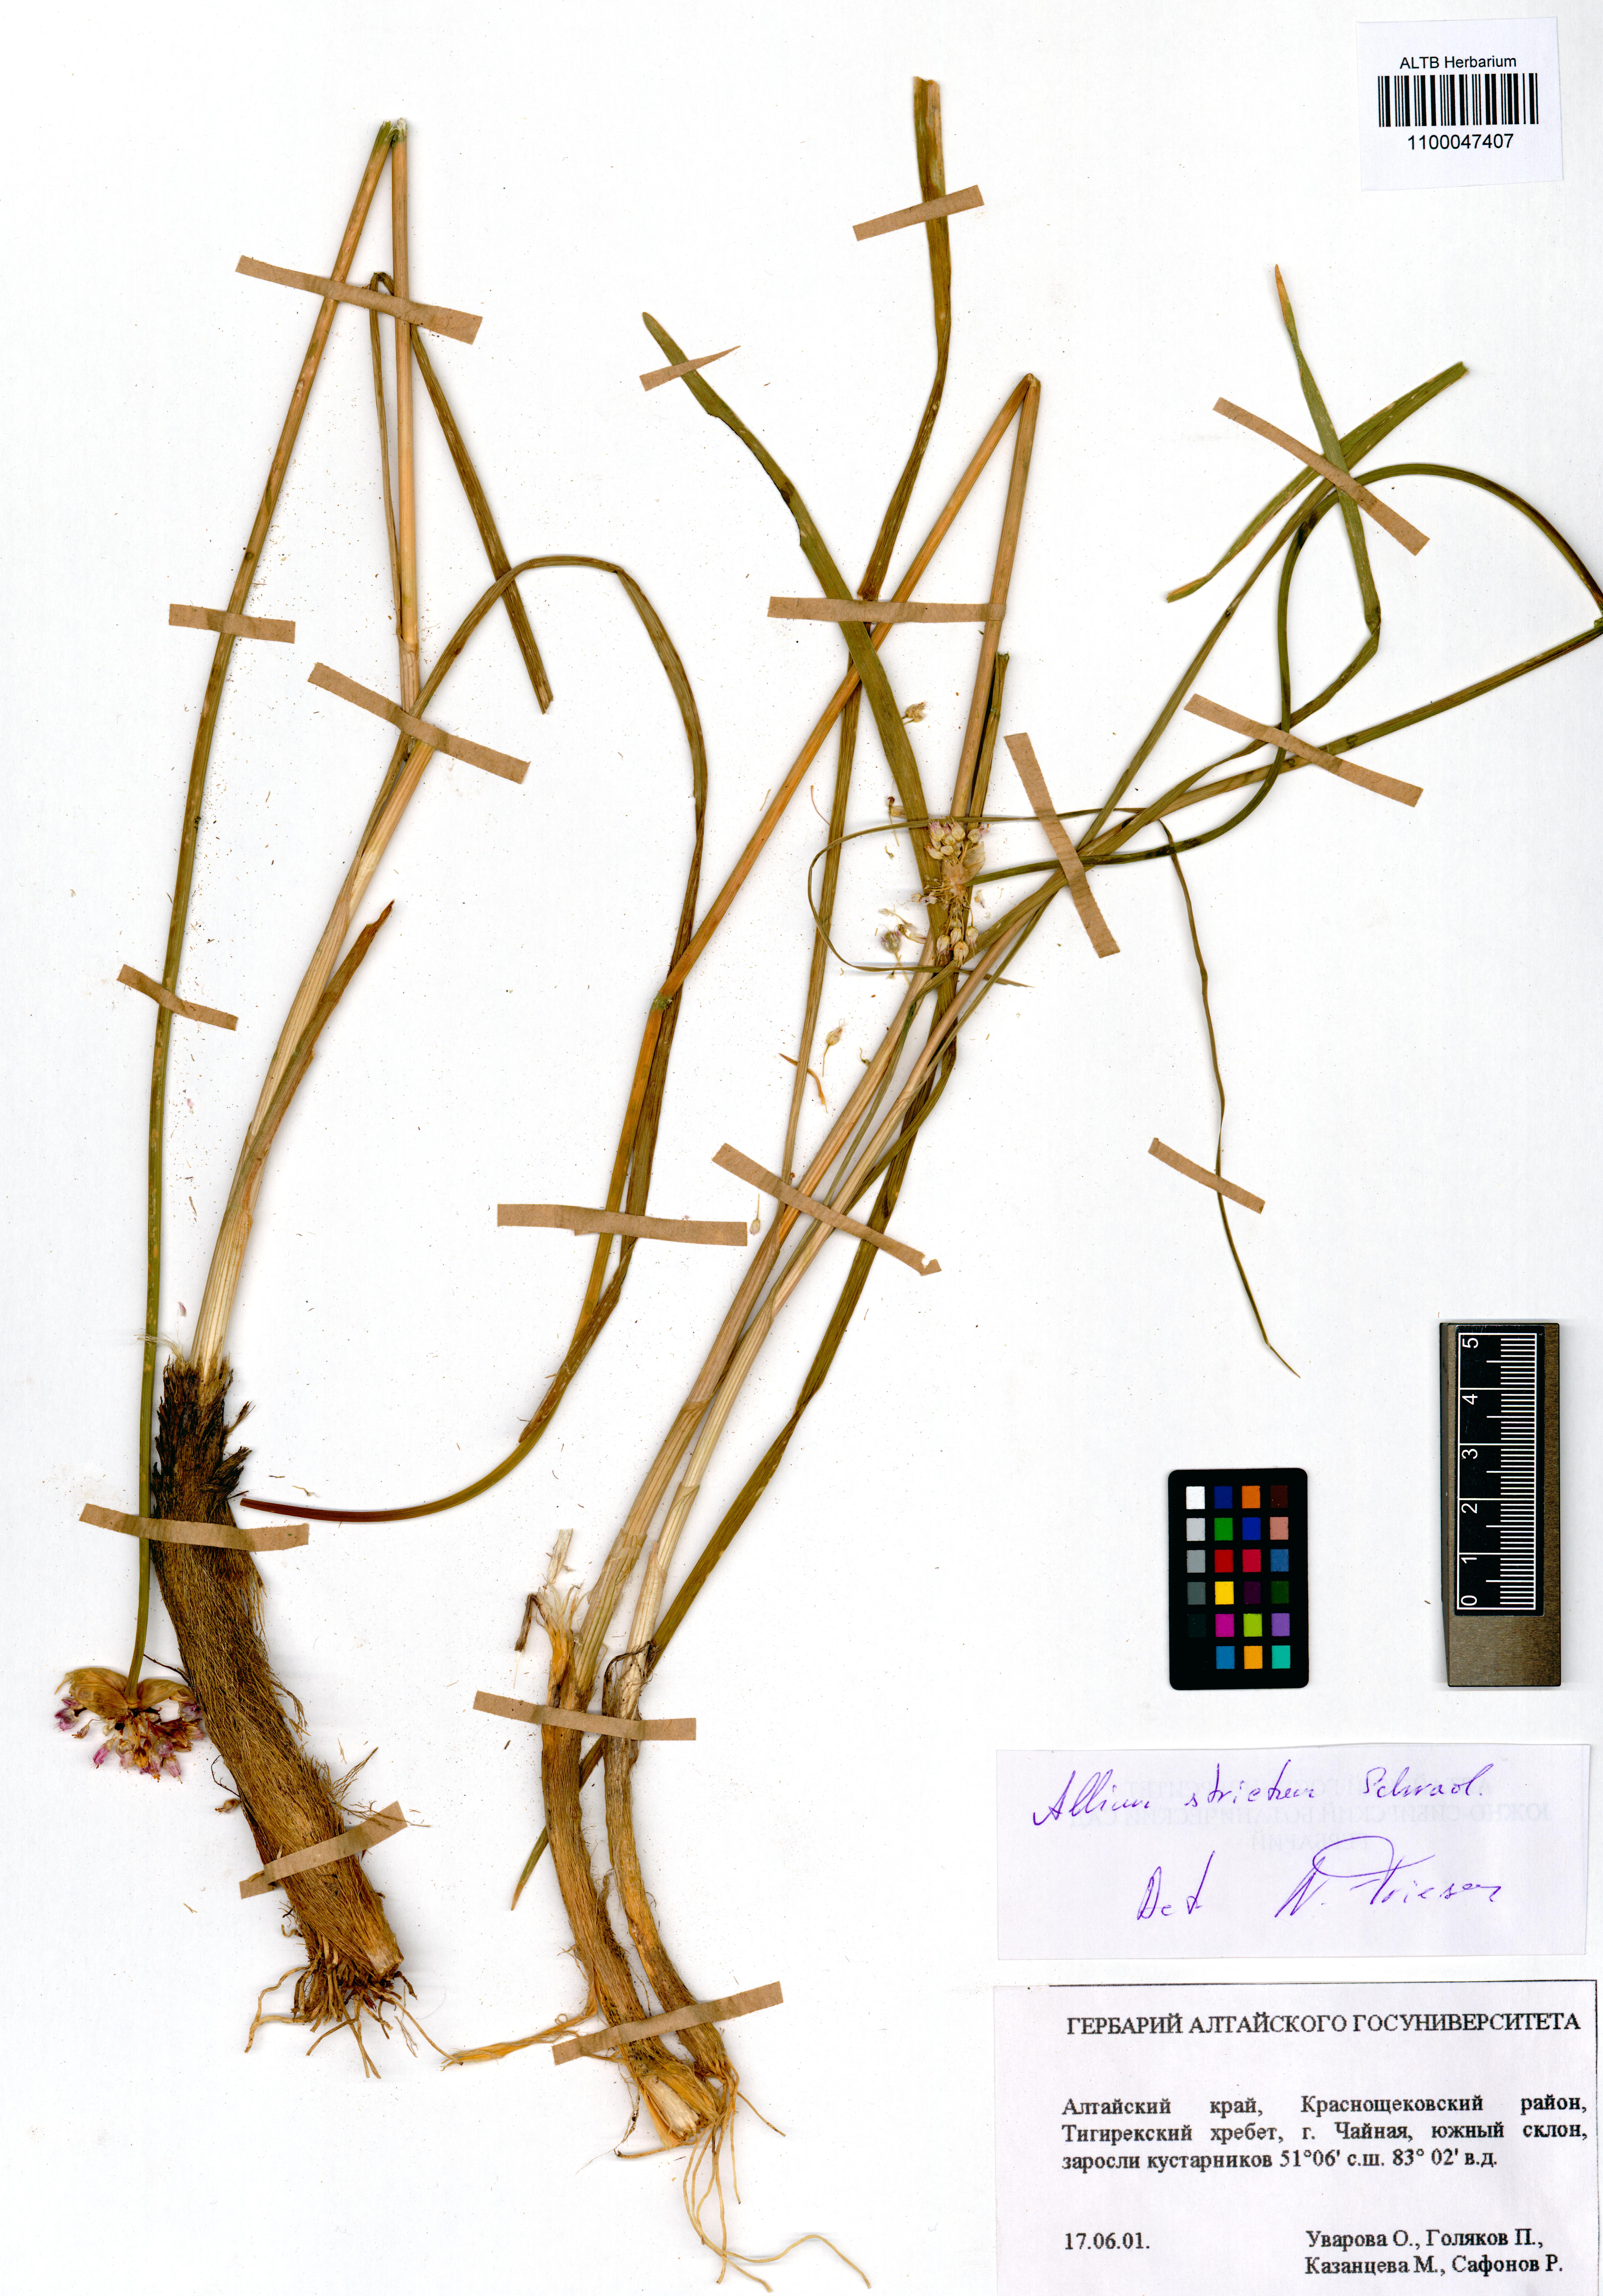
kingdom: Plantae
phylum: Tracheophyta
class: Liliopsida
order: Asparagales
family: Amaryllidaceae
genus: Allium
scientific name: Allium strictum
